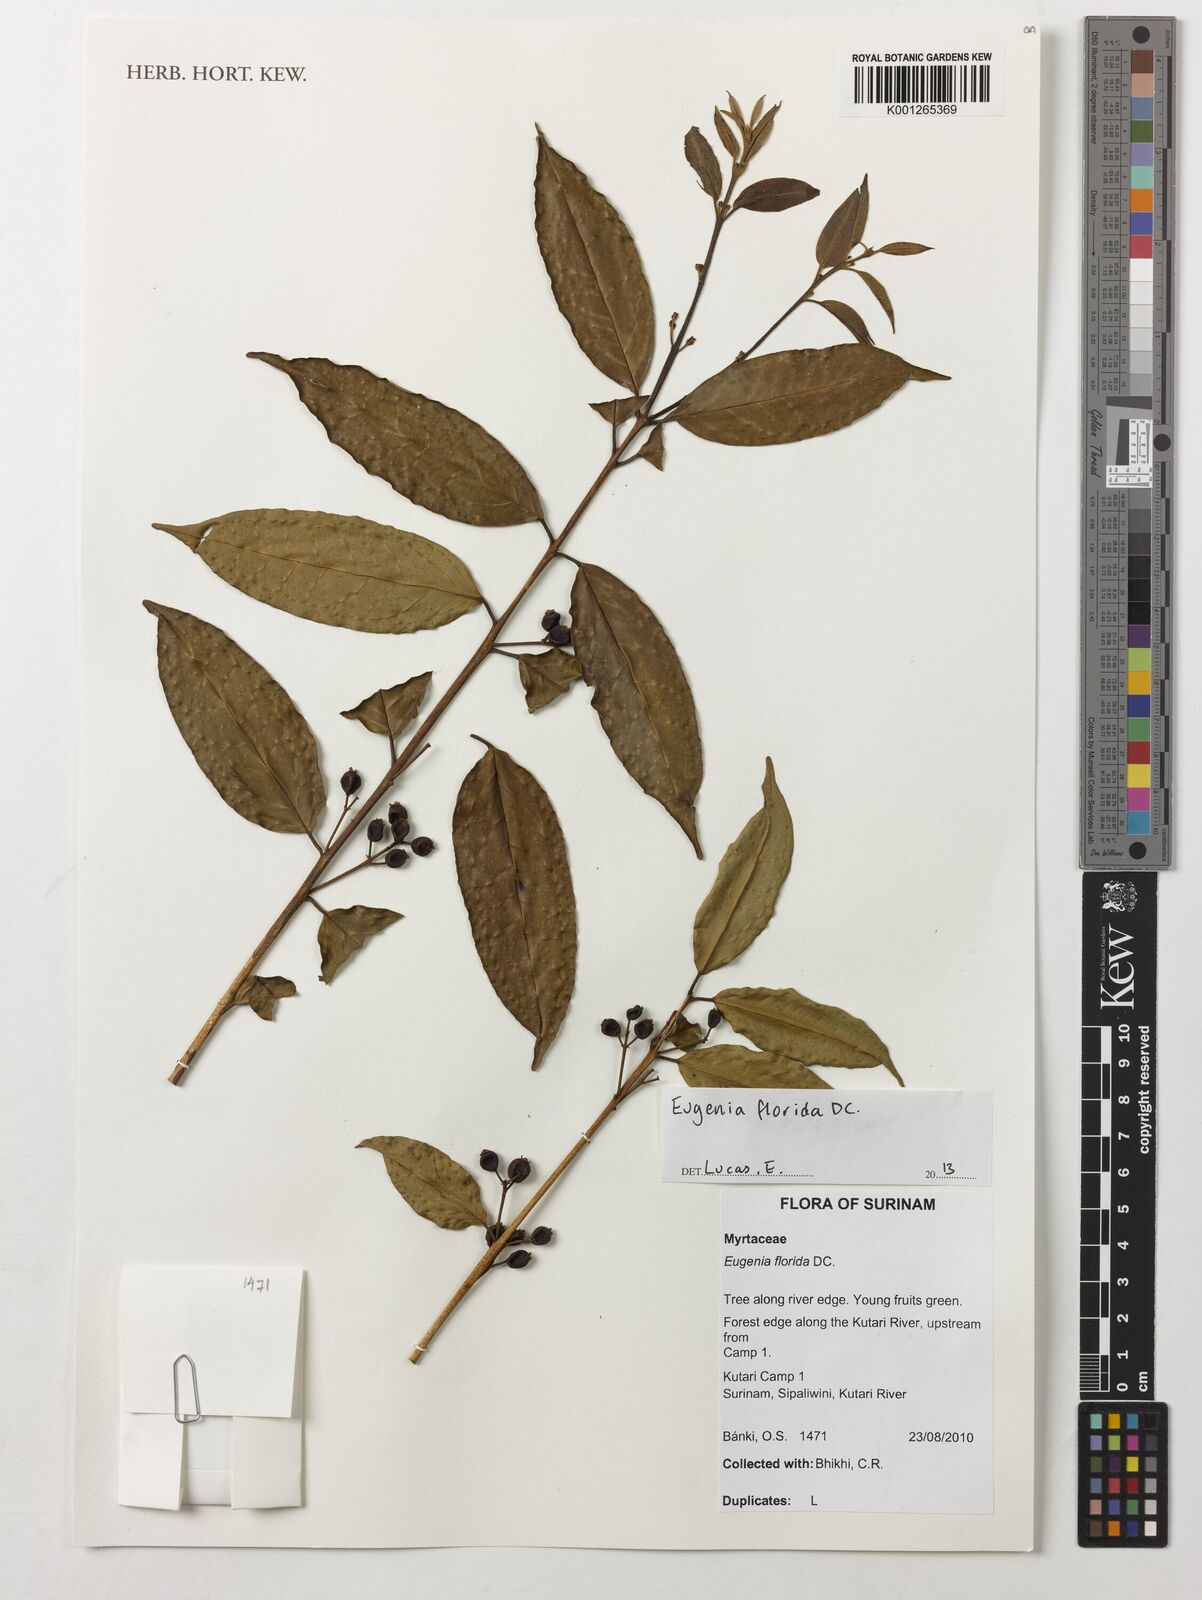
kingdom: Plantae
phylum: Tracheophyta
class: Magnoliopsida
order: Myrtales
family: Myrtaceae
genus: Eugenia
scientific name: Eugenia florida
